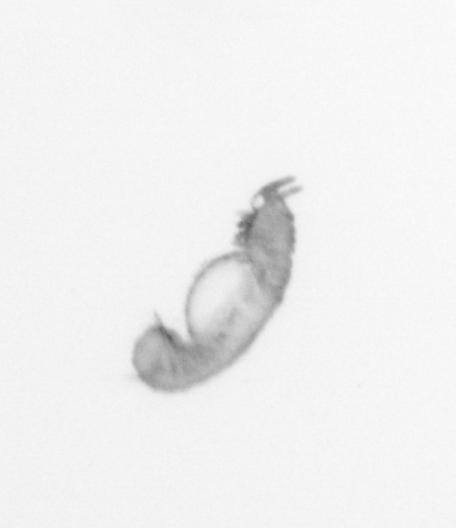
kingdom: Animalia
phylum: Annelida
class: Polychaeta
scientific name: Polychaeta
